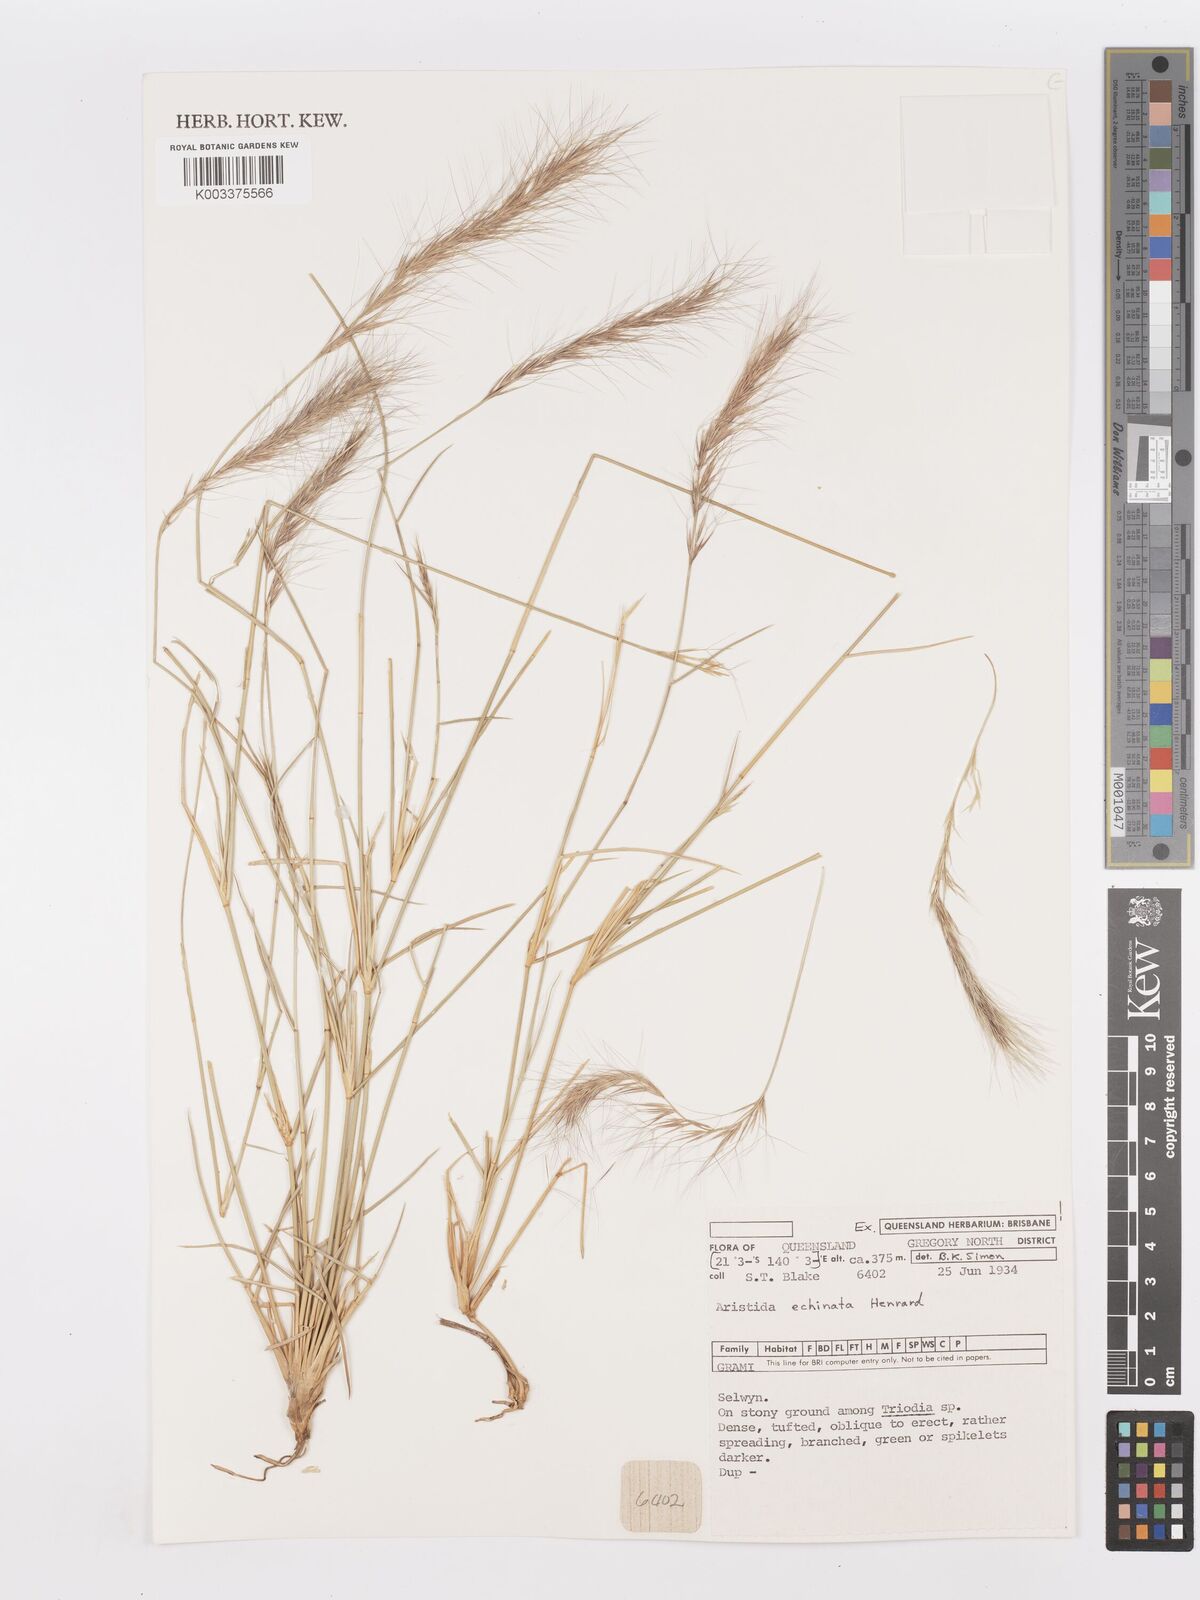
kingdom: Plantae
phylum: Tracheophyta
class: Liliopsida
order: Poales
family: Poaceae
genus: Aristida
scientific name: Aristida echinata
